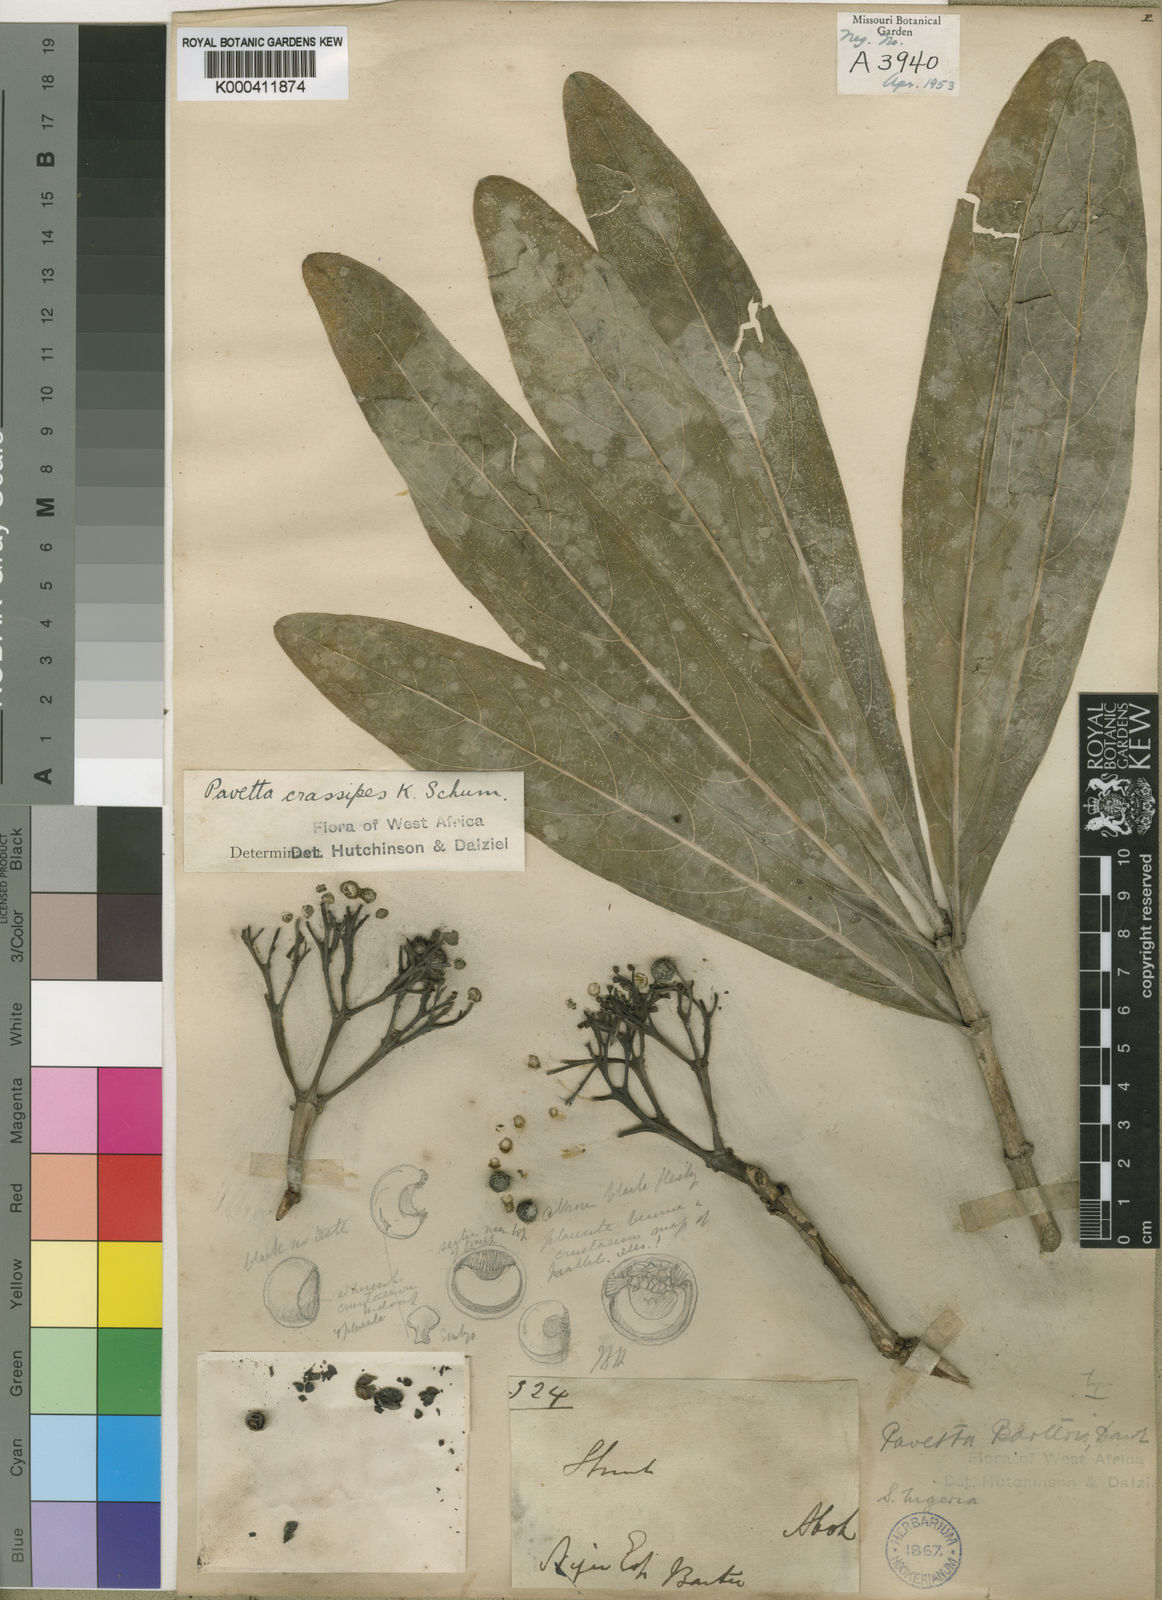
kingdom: Plantae
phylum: Tracheophyta
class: Magnoliopsida
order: Gentianales
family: Rubiaceae
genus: Pavetta
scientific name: Pavetta crassipes
